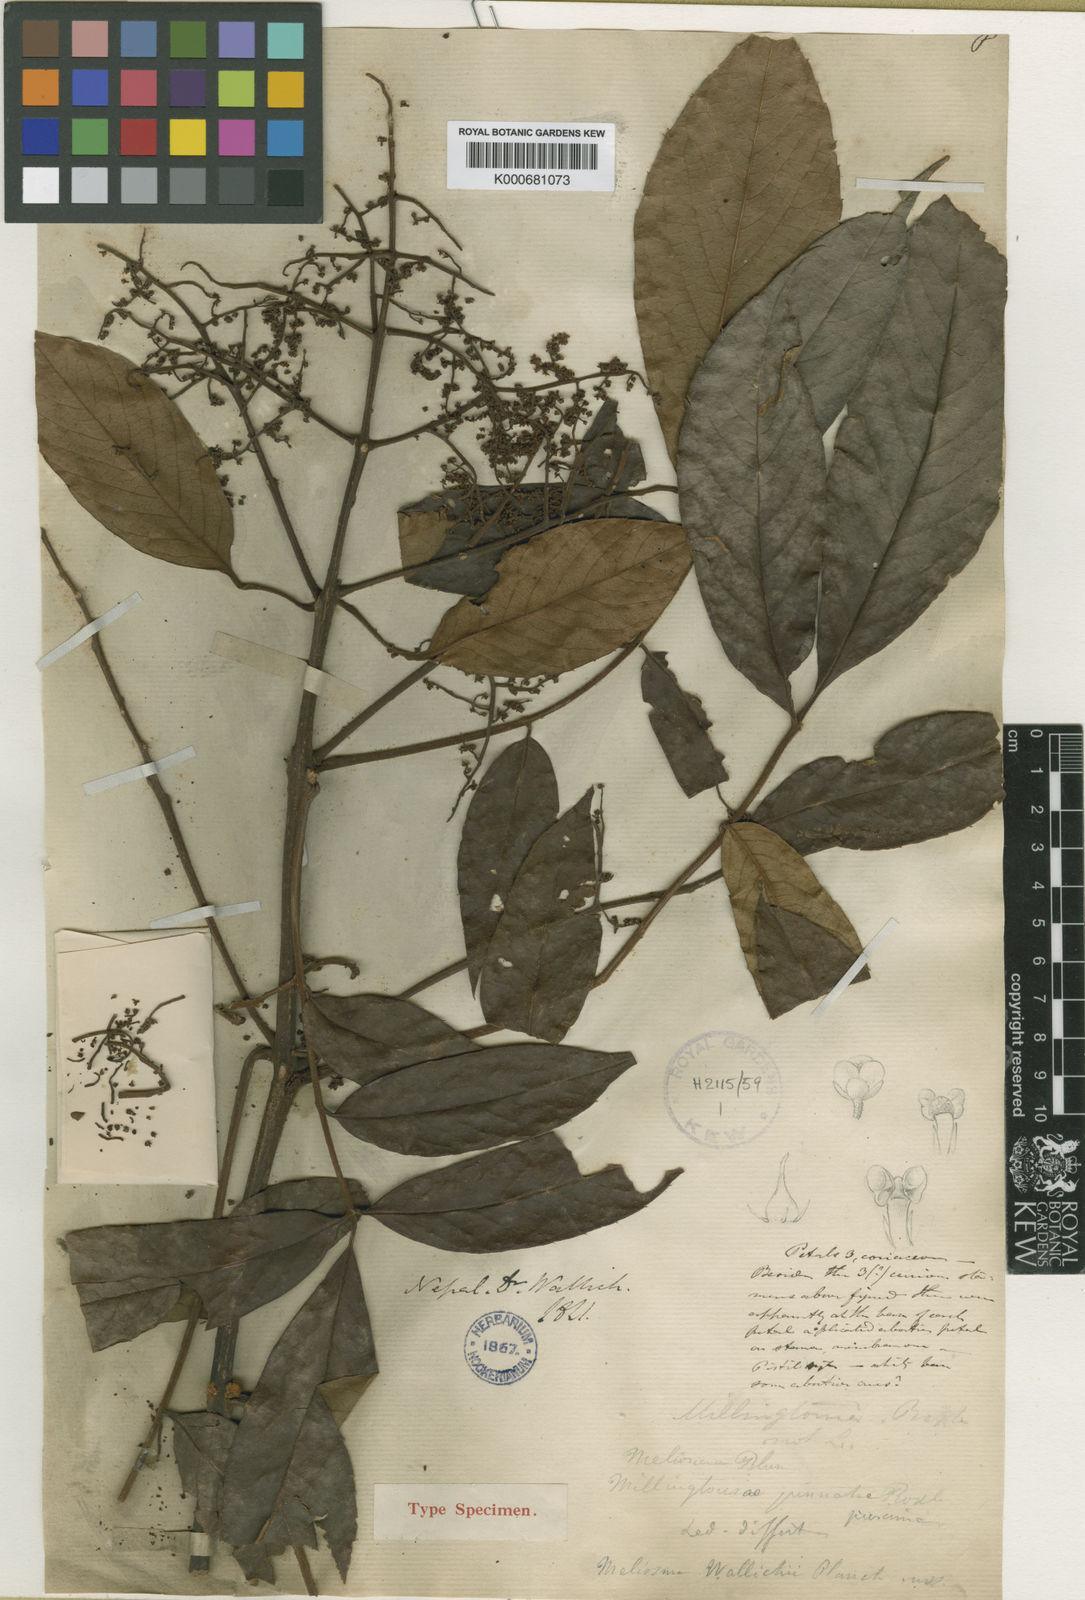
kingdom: Plantae
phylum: Tracheophyta
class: Magnoliopsida
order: Proteales
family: Sabiaceae
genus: Meliosma
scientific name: Meliosma rhoifolia
